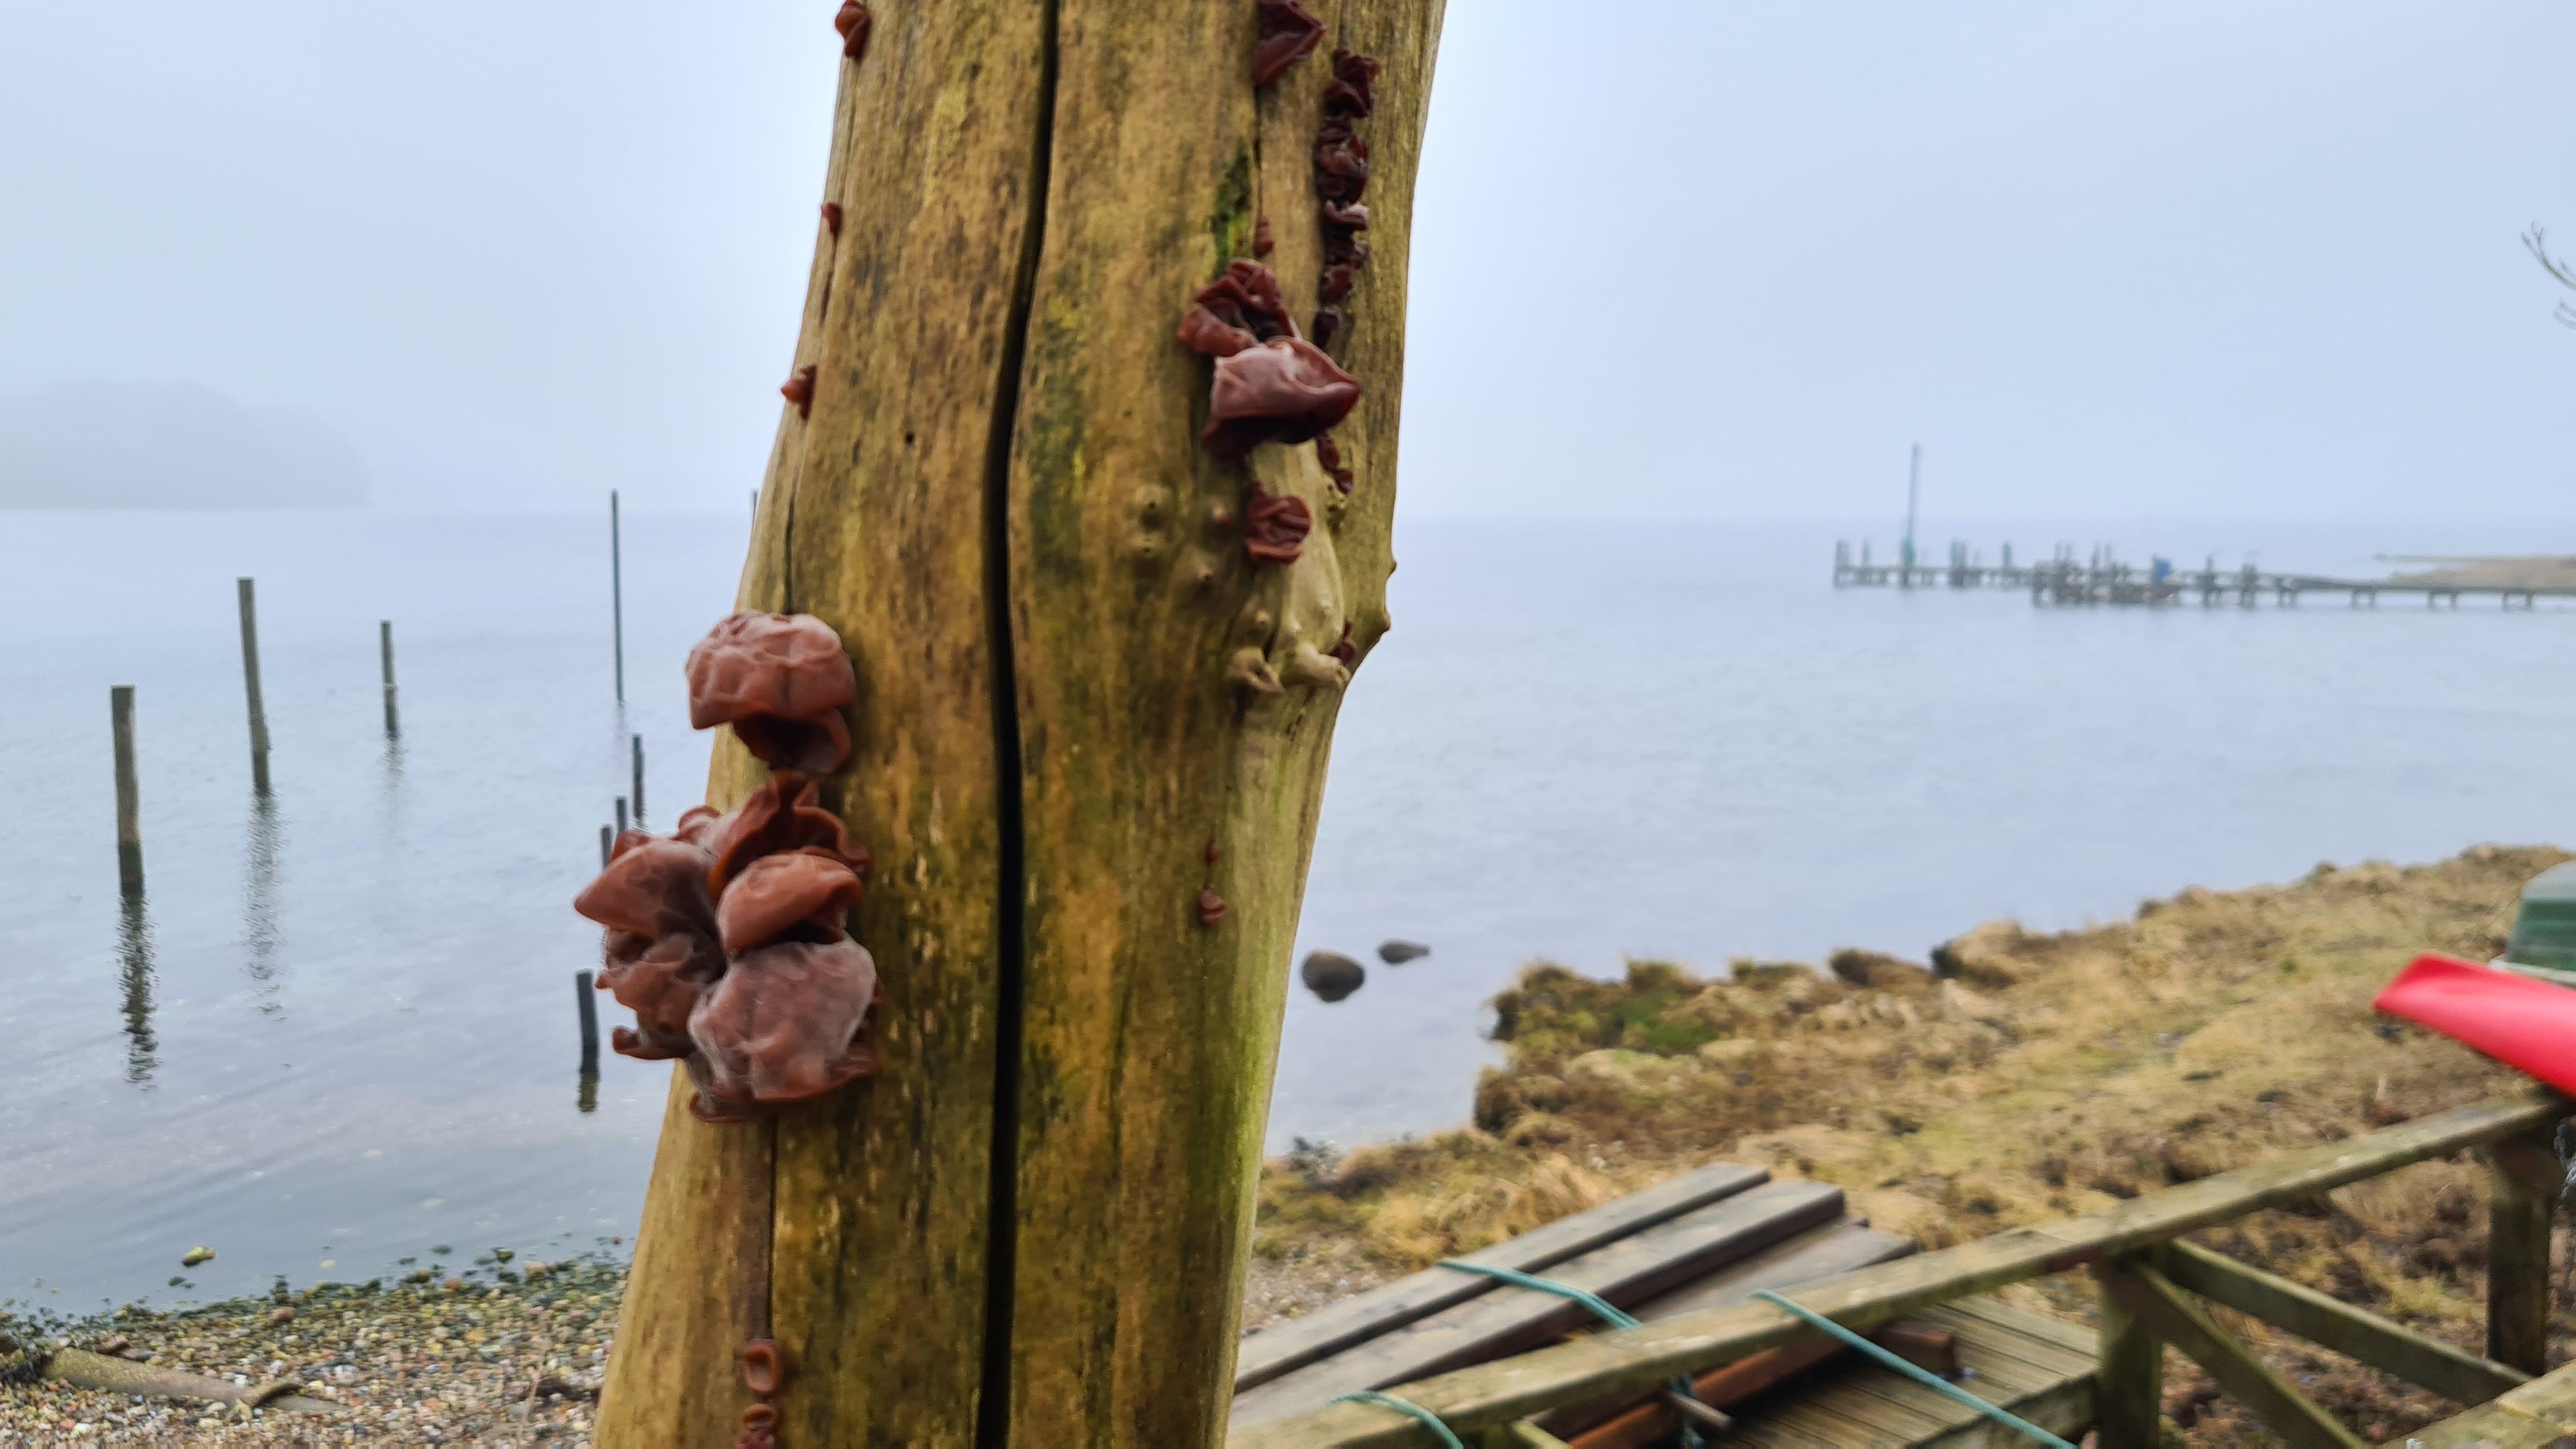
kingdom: Fungi
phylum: Basidiomycota
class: Agaricomycetes
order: Auriculariales
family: Auriculariaceae
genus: Auricularia
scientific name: Auricularia auricula-judae
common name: almindelig judasøre
